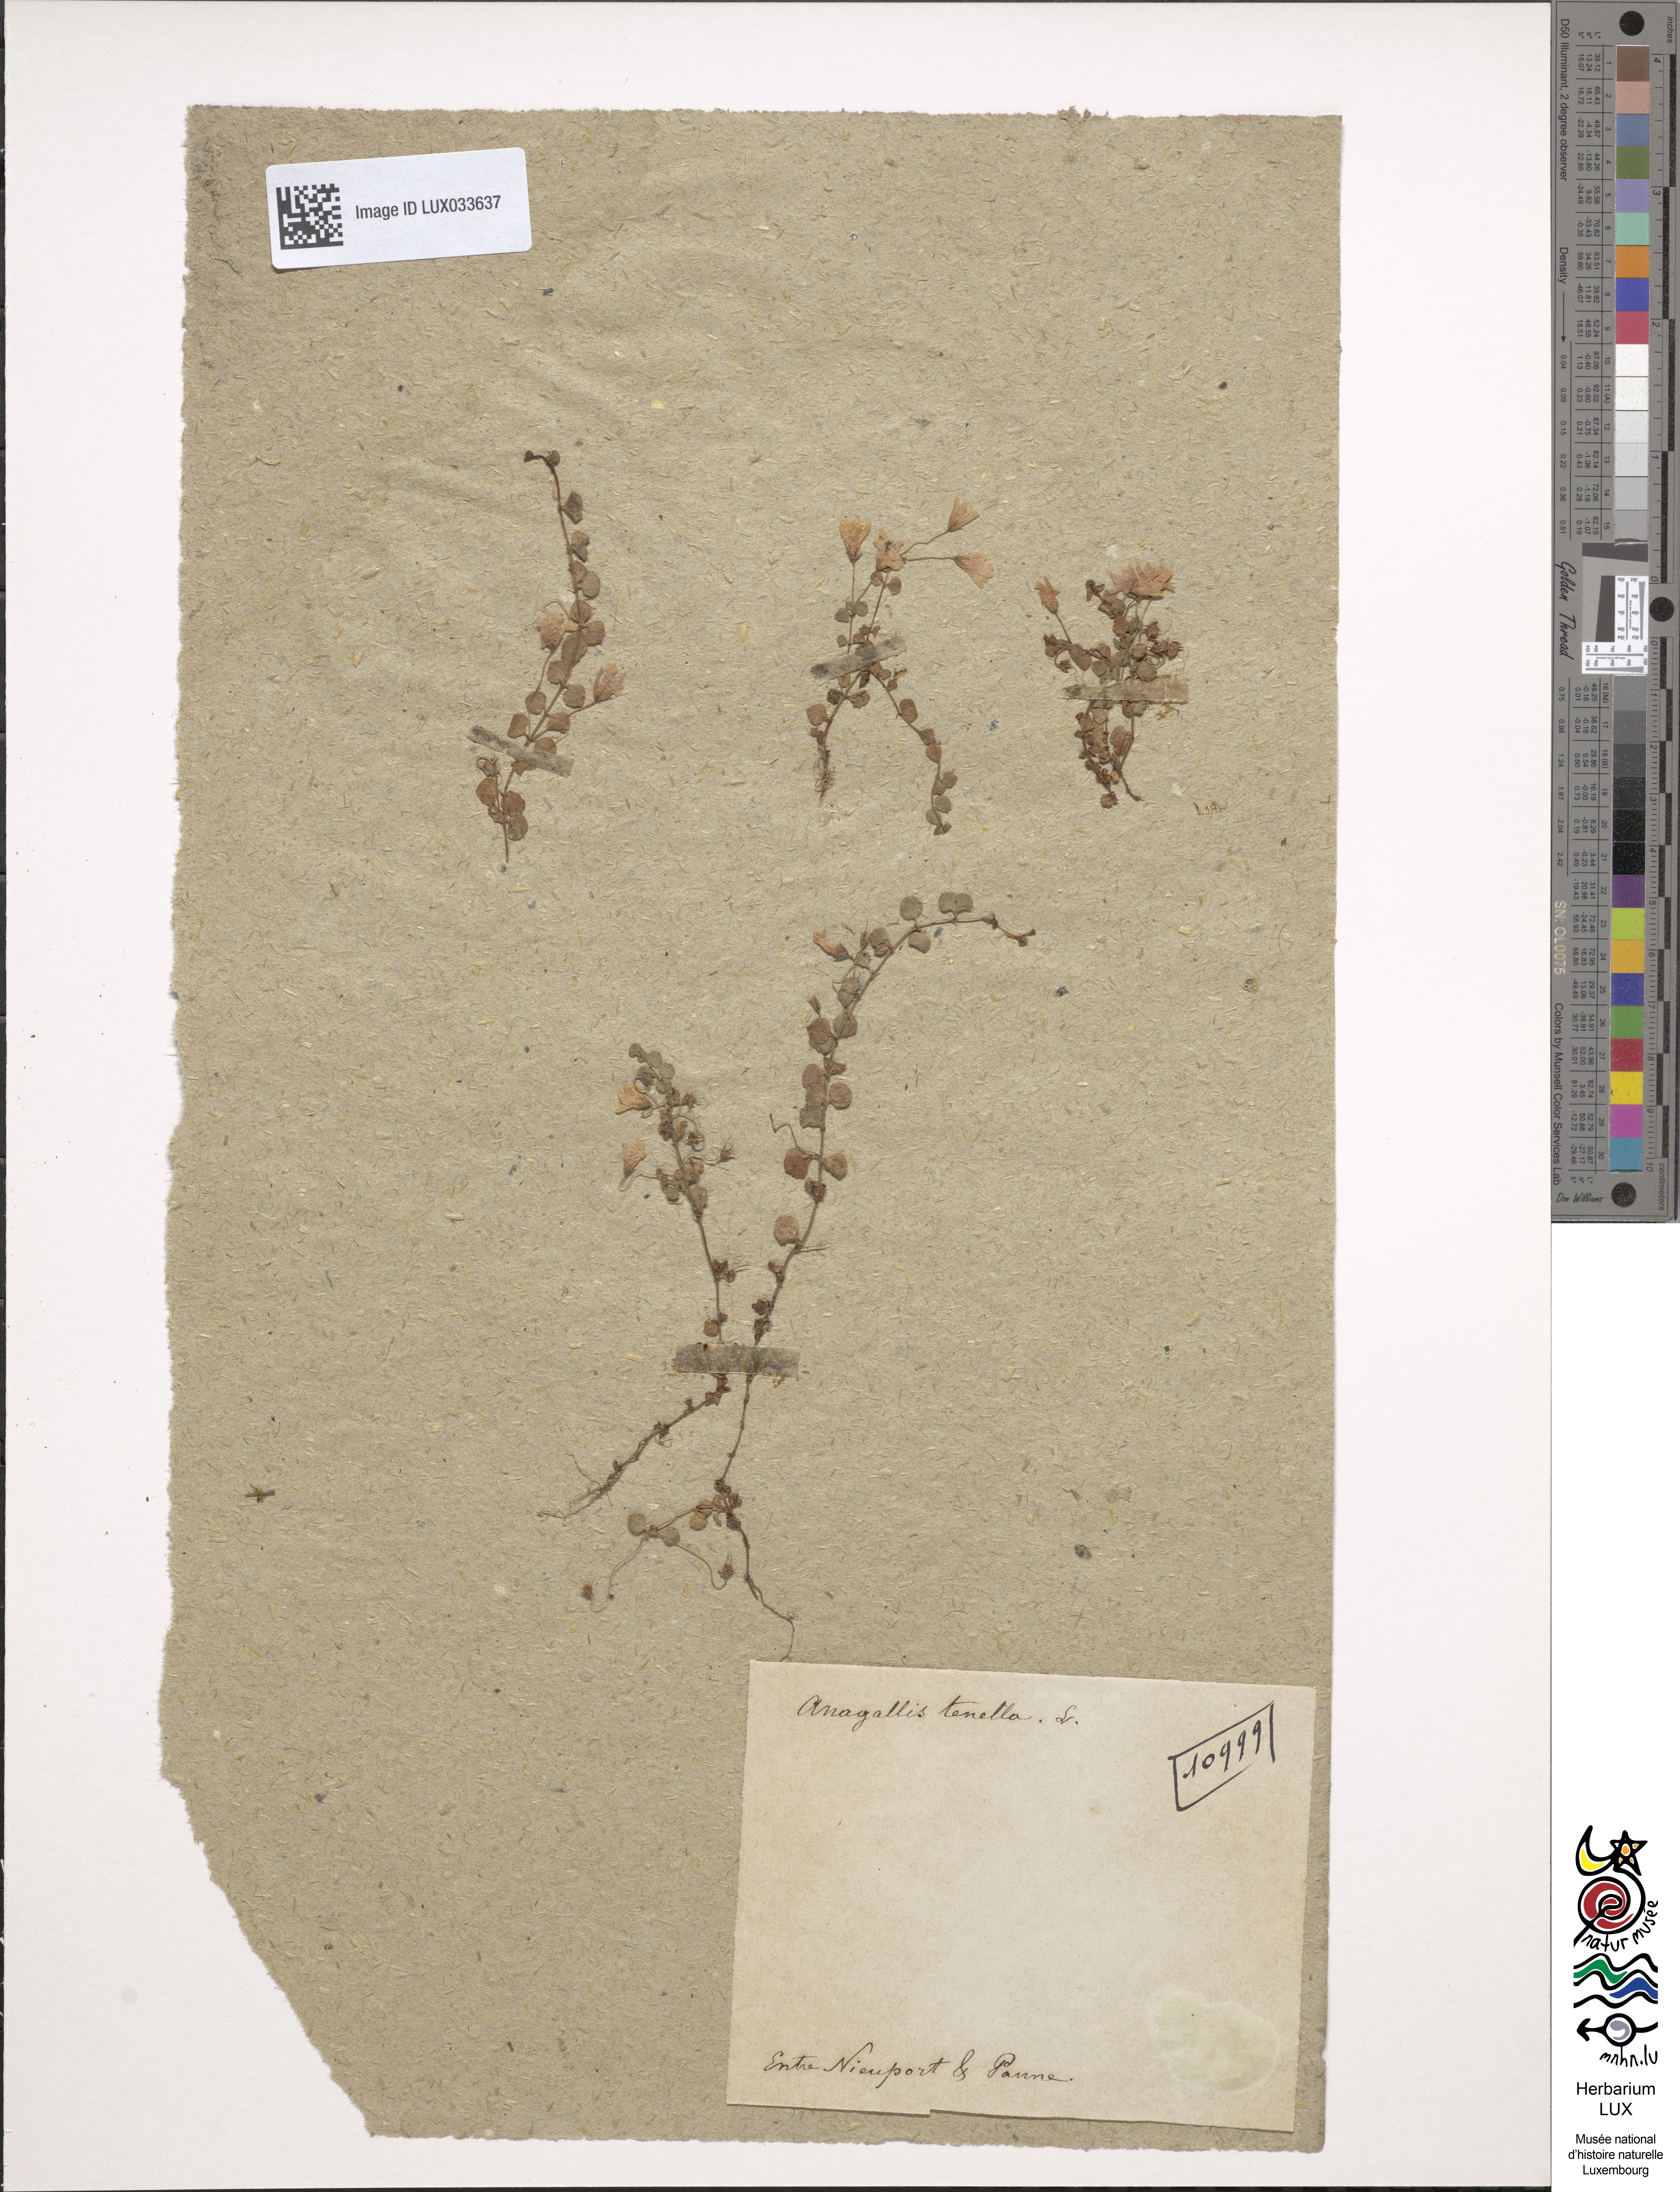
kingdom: Plantae
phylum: Tracheophyta
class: Magnoliopsida
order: Ericales
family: Primulaceae
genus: Lysimachia
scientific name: Lysimachia tenella
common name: European bog pimpernel
